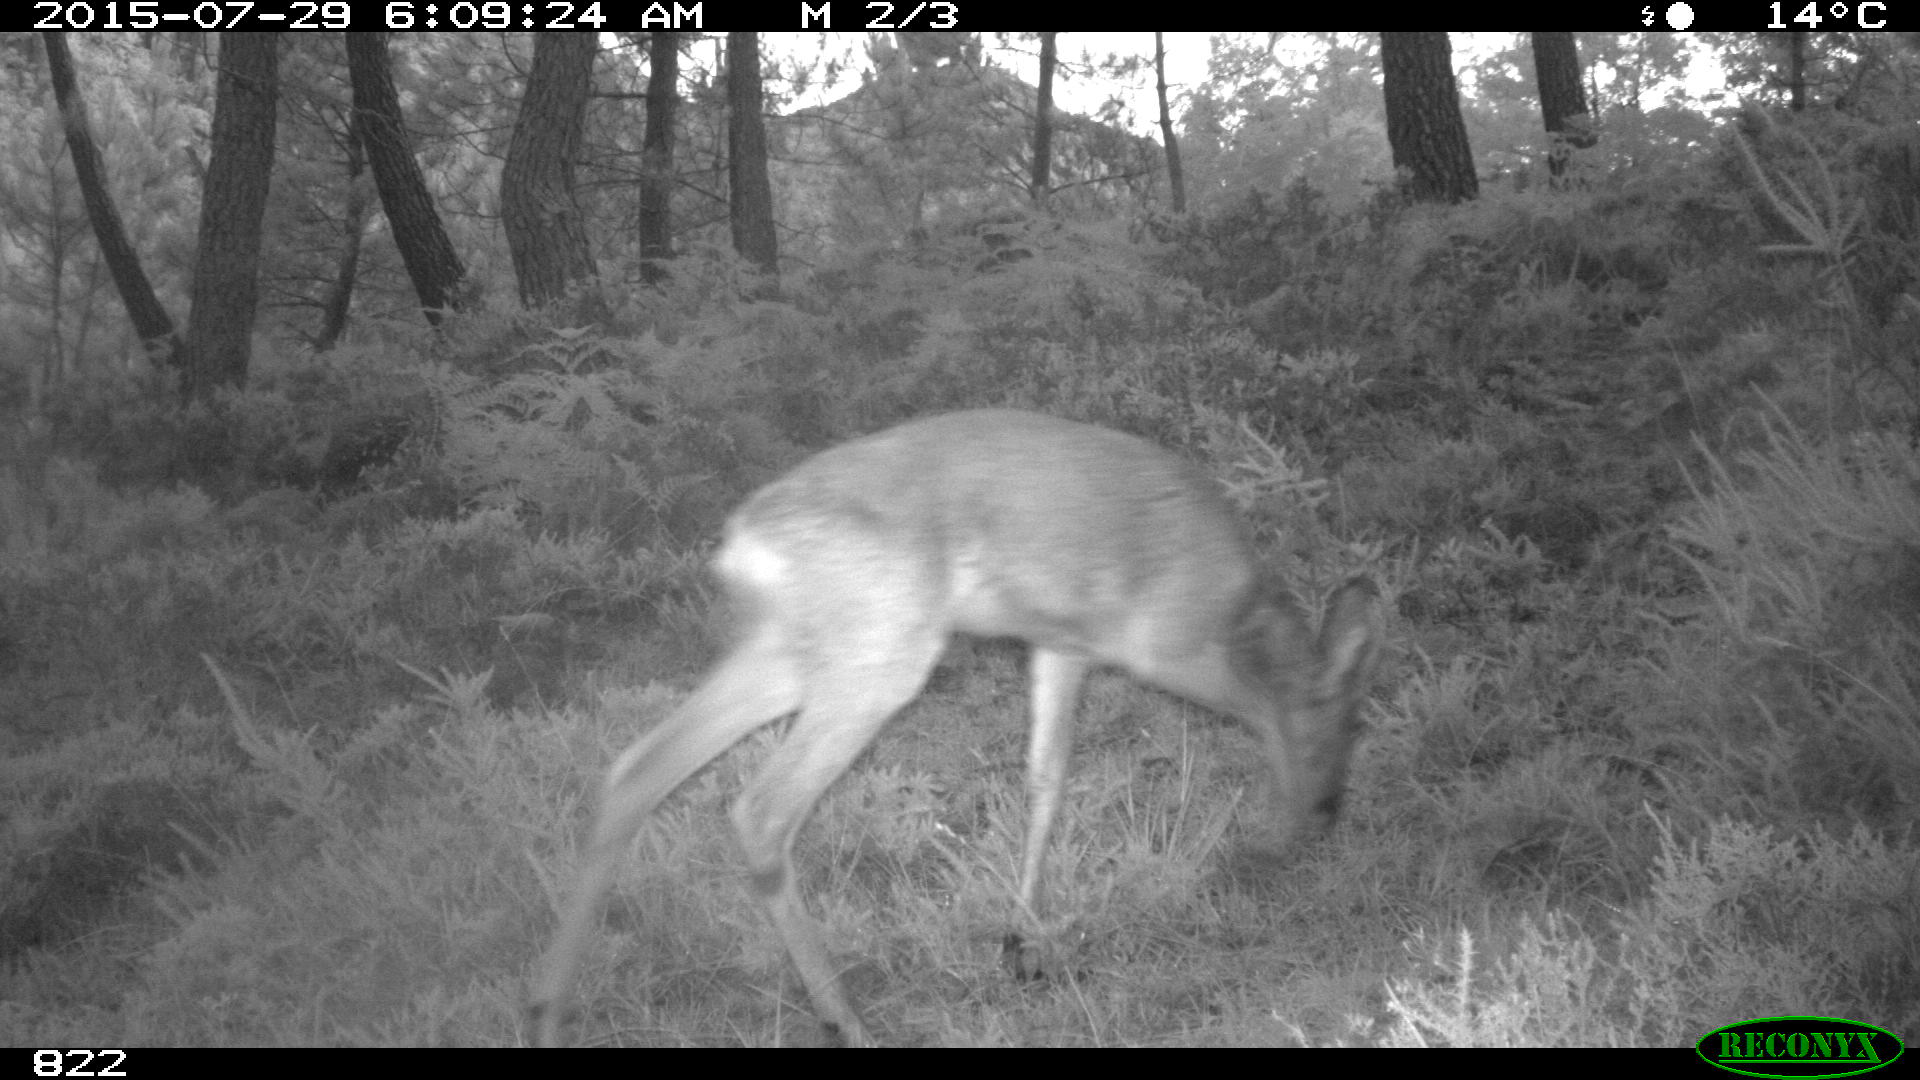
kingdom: Animalia
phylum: Chordata
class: Mammalia
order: Artiodactyla
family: Cervidae
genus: Capreolus
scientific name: Capreolus capreolus
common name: Western roe deer
